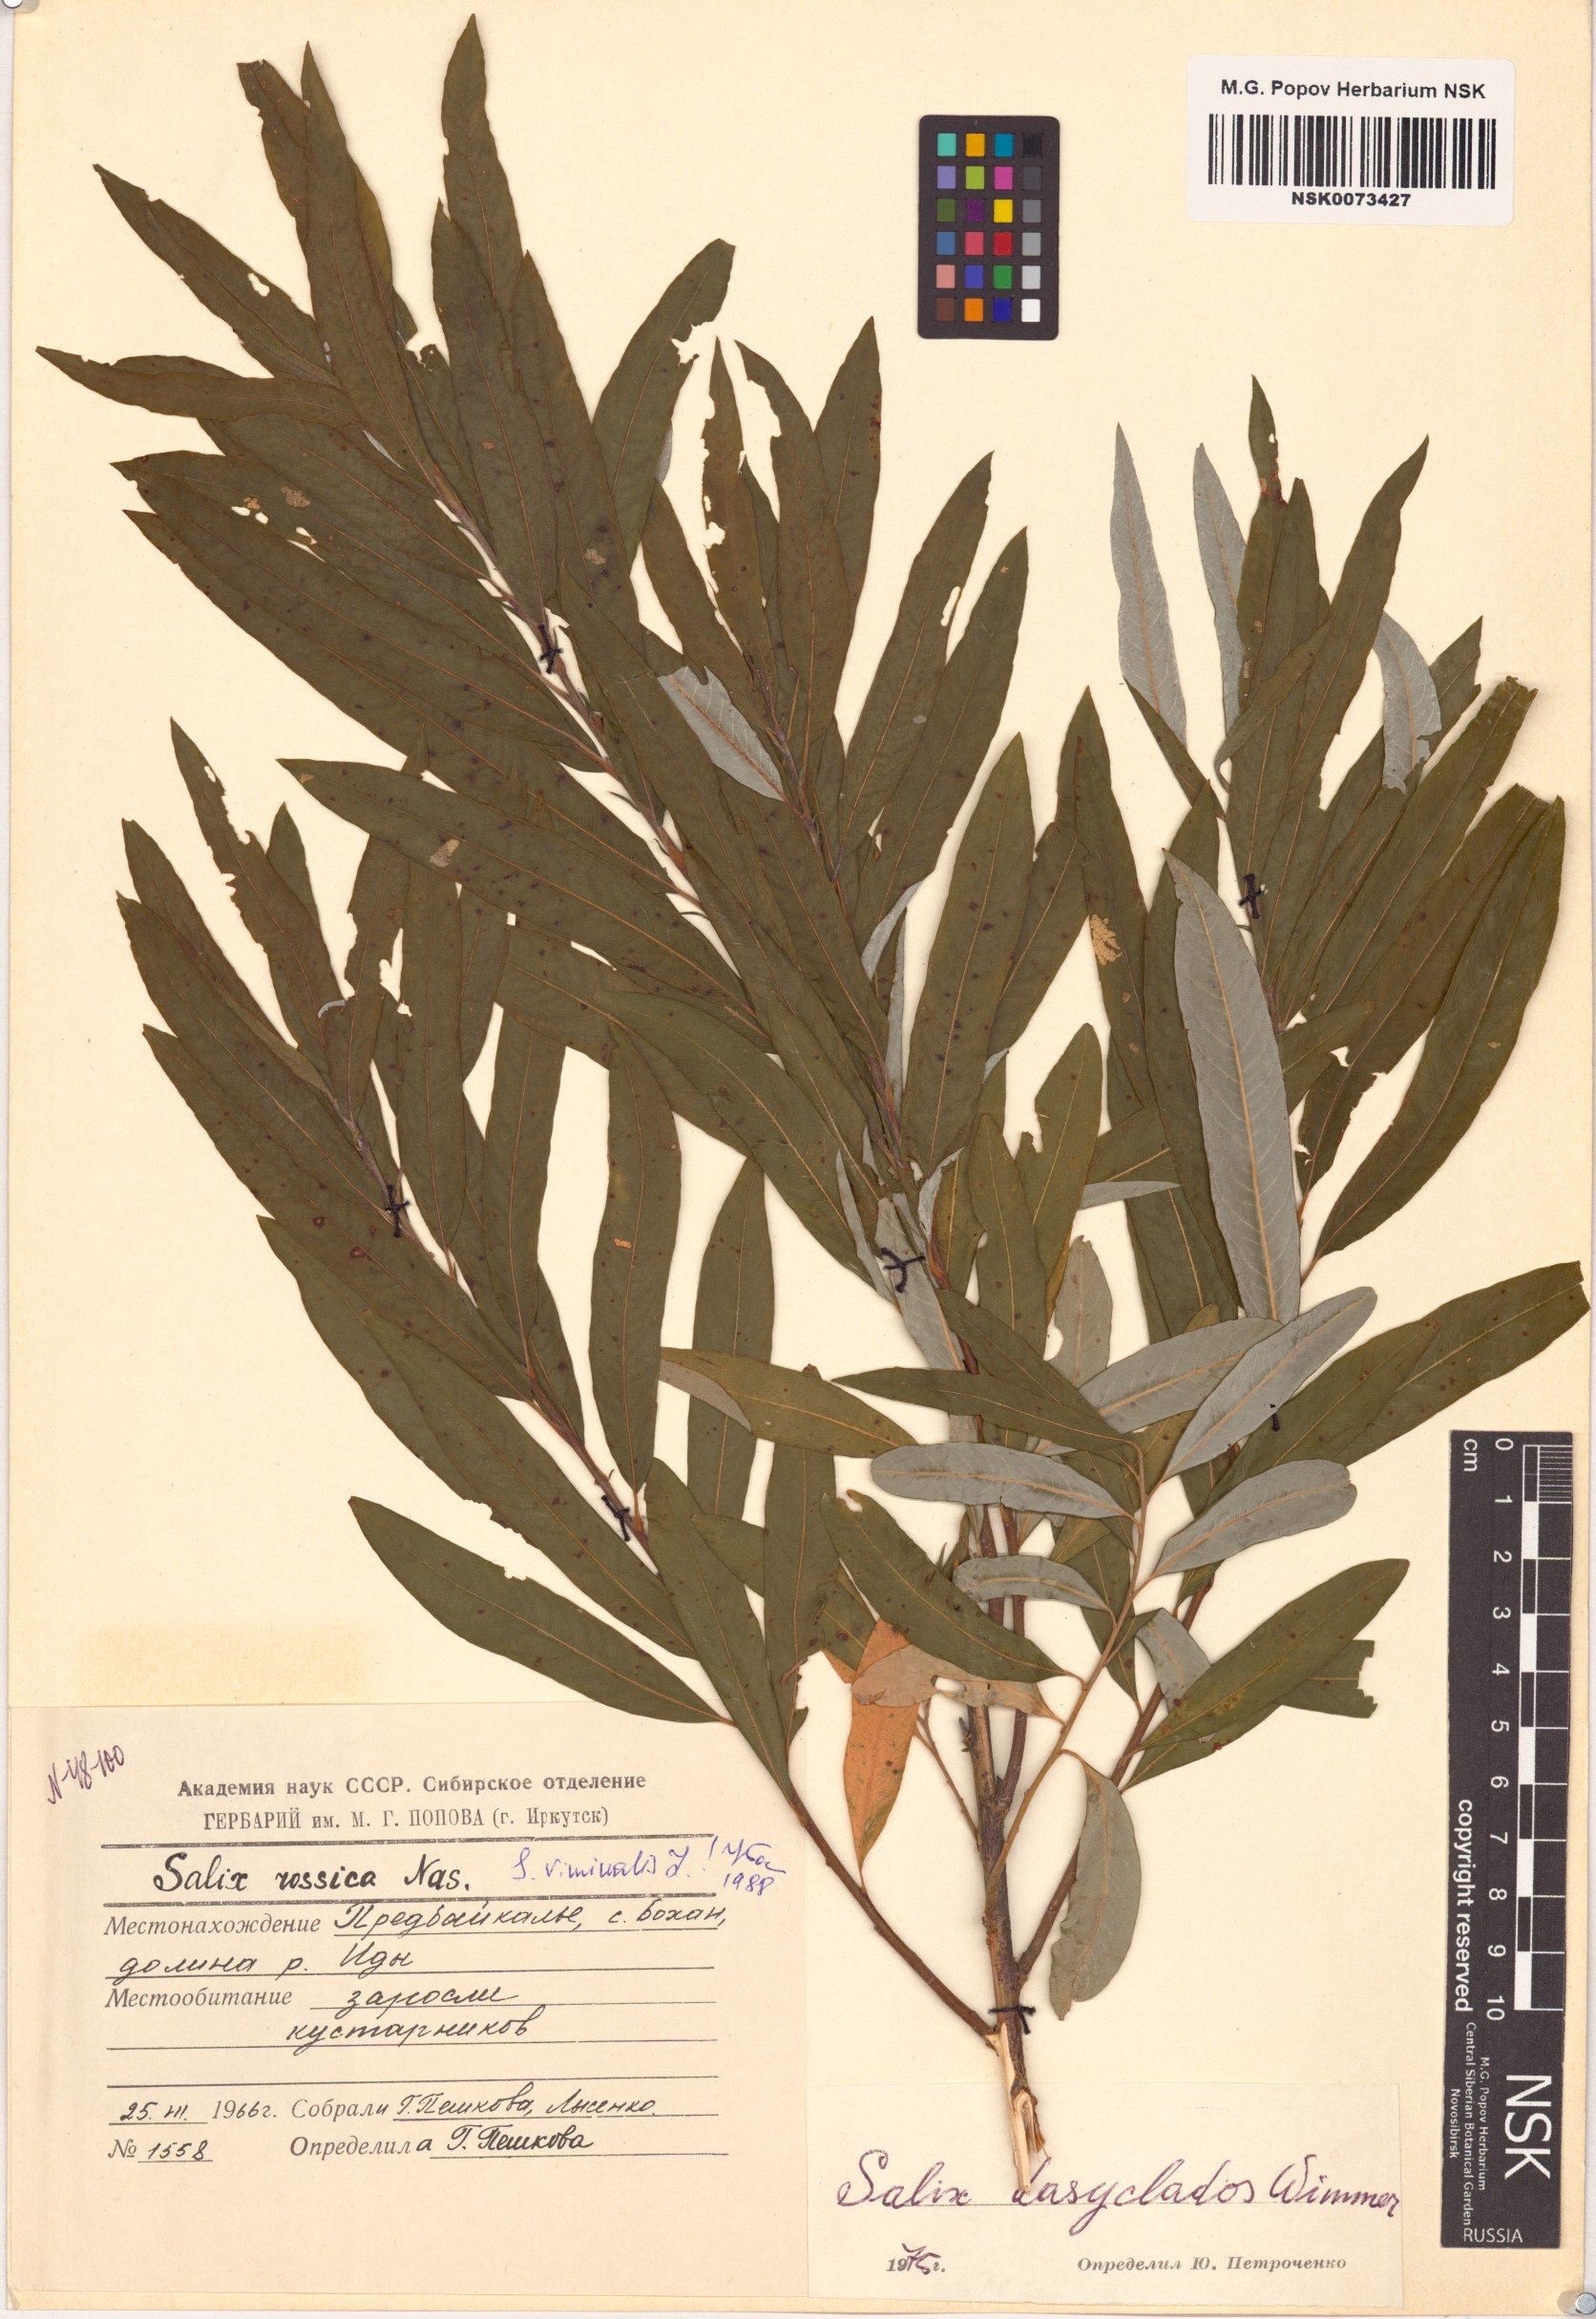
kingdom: Plantae
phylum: Tracheophyta
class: Magnoliopsida
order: Malpighiales
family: Salicaceae
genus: Salix
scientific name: Salix viminalis
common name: Osier
